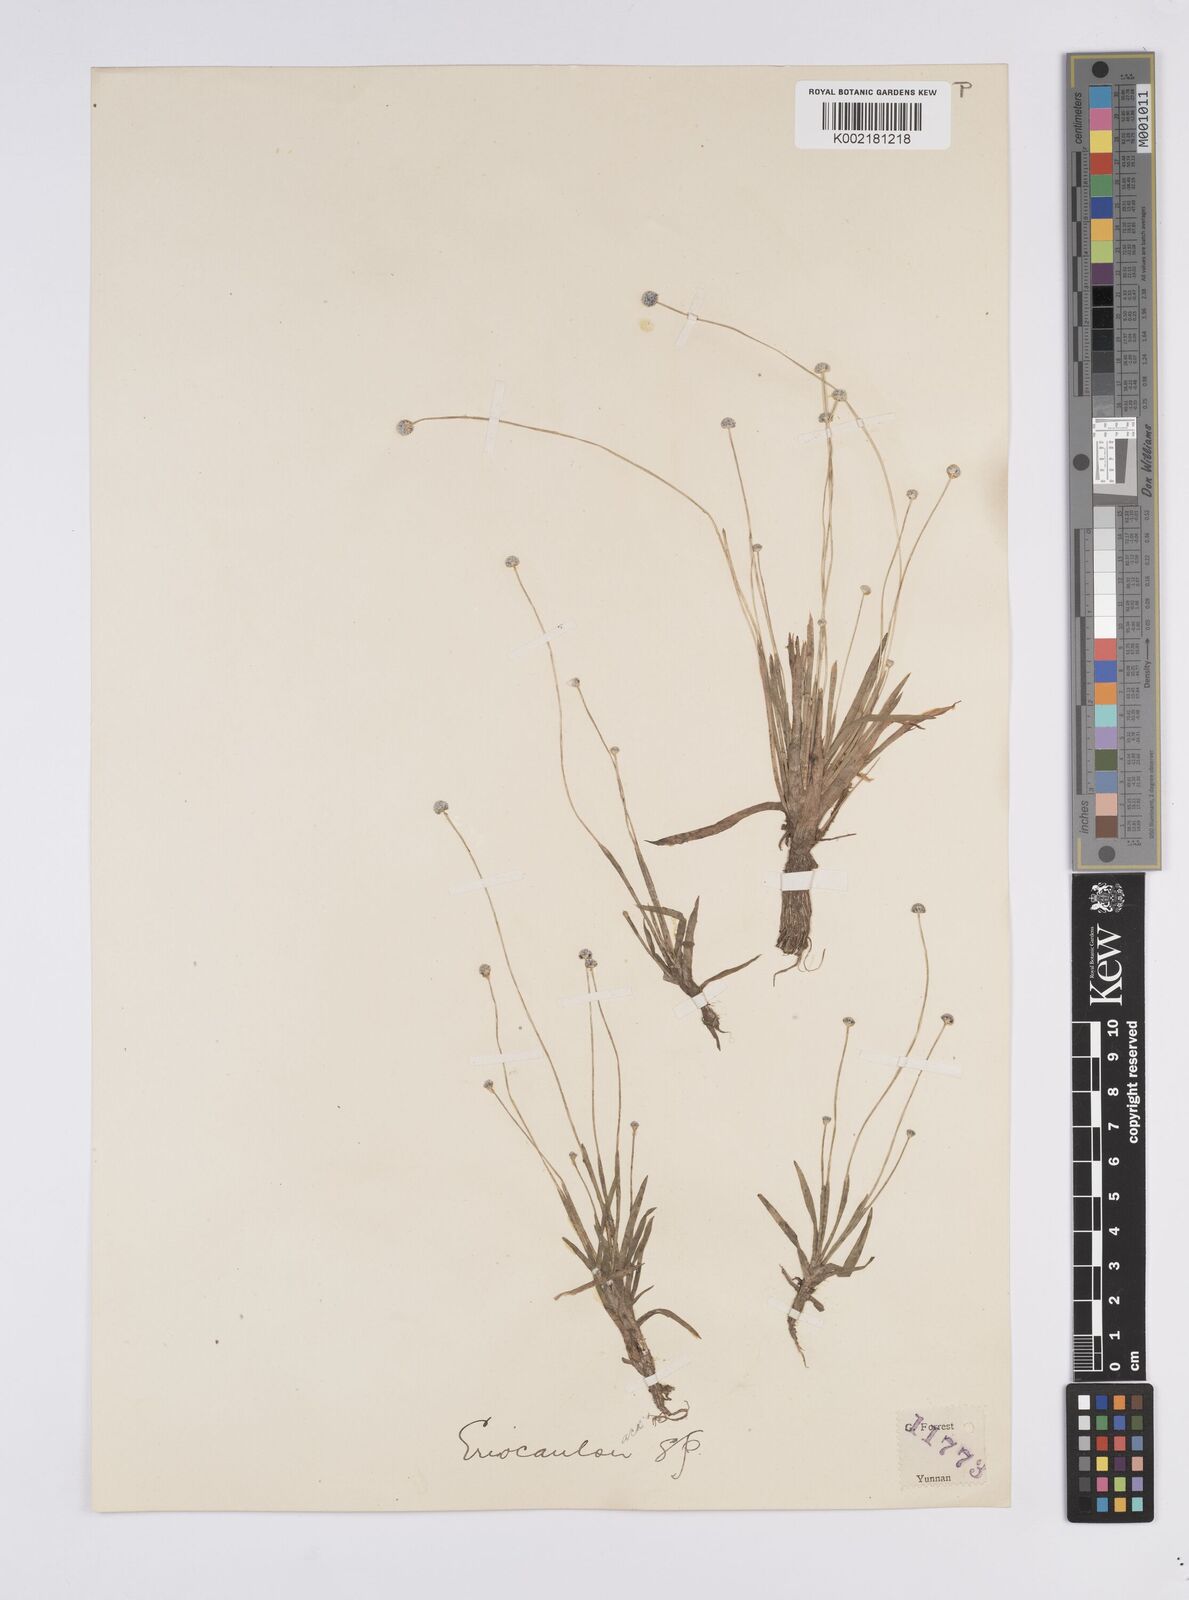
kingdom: Plantae
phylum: Tracheophyta
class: Liliopsida
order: Poales
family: Eriocaulaceae
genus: Eriocaulon
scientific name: Eriocaulon
